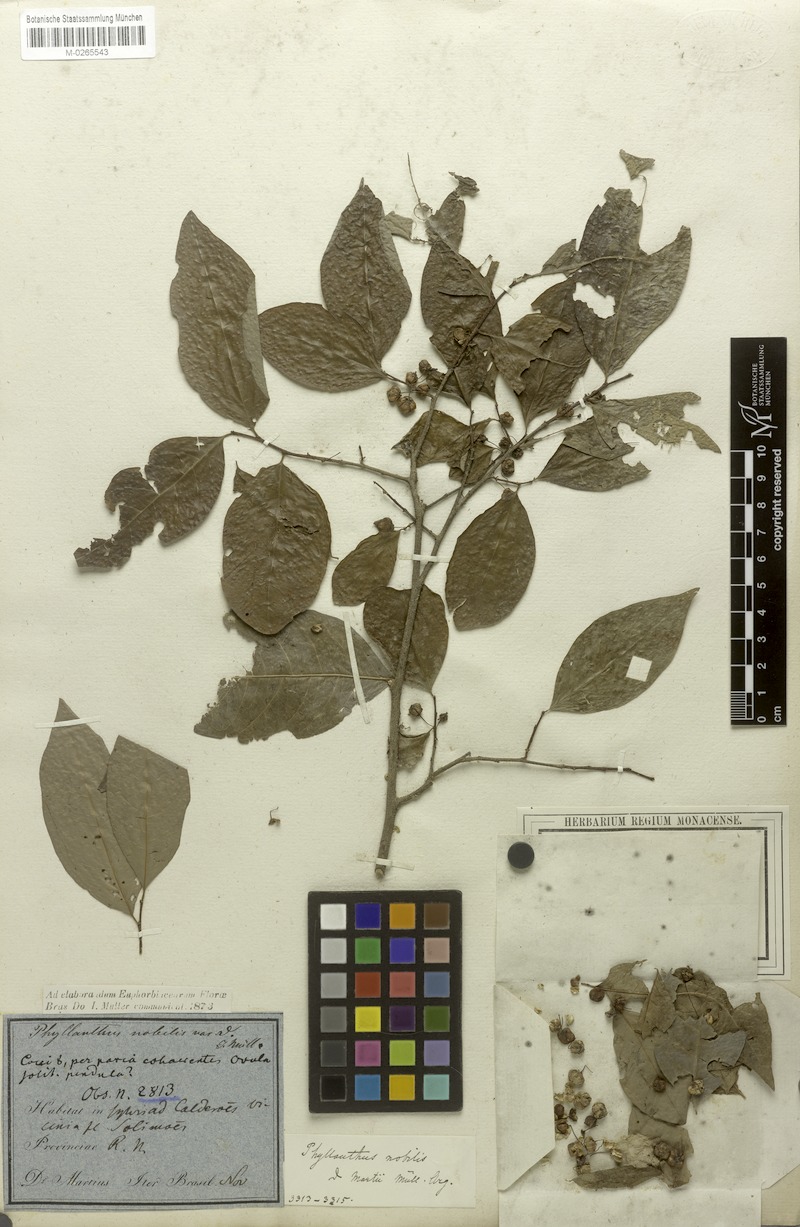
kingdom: Plantae
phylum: Tracheophyta
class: Magnoliopsida
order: Malpighiales
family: Phyllanthaceae
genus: Margaritaria
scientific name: Margaritaria nobilis
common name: Goose berry
